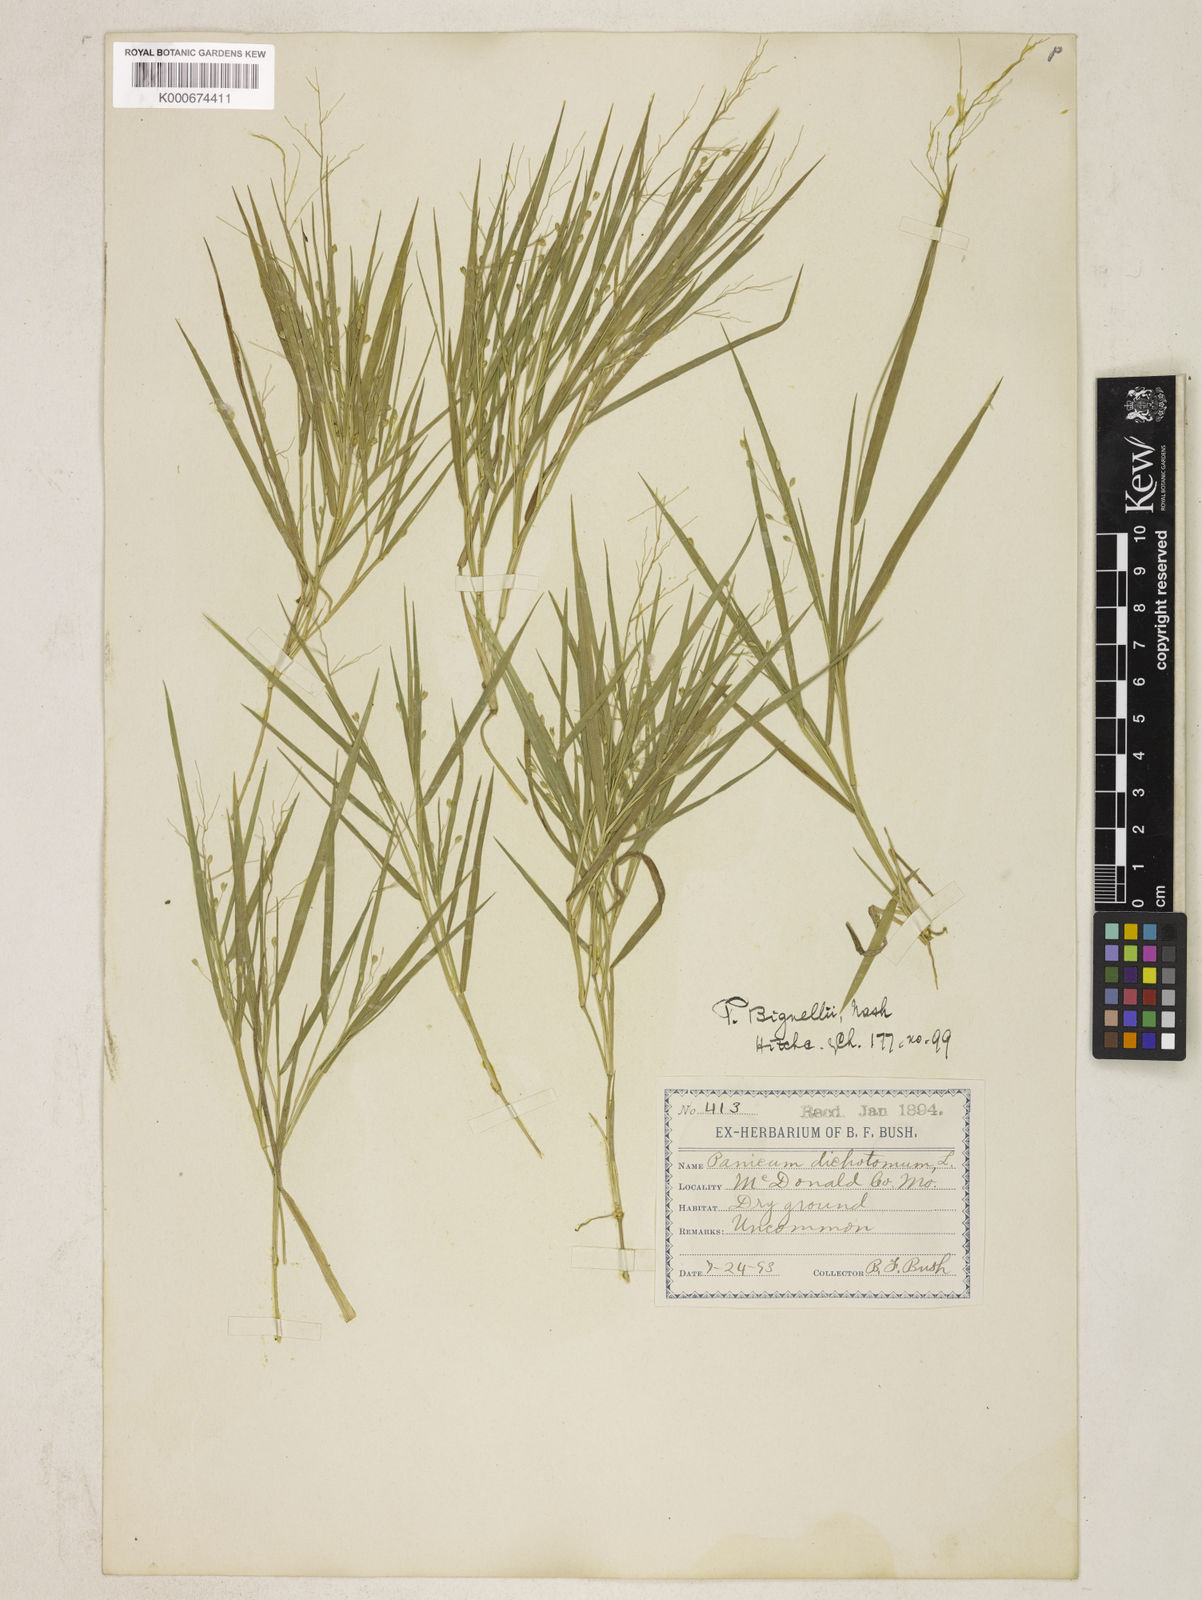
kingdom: Plantae
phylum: Tracheophyta
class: Liliopsida
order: Poales
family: Poaceae
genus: Dichanthelium
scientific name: Dichanthelium bicknellii
